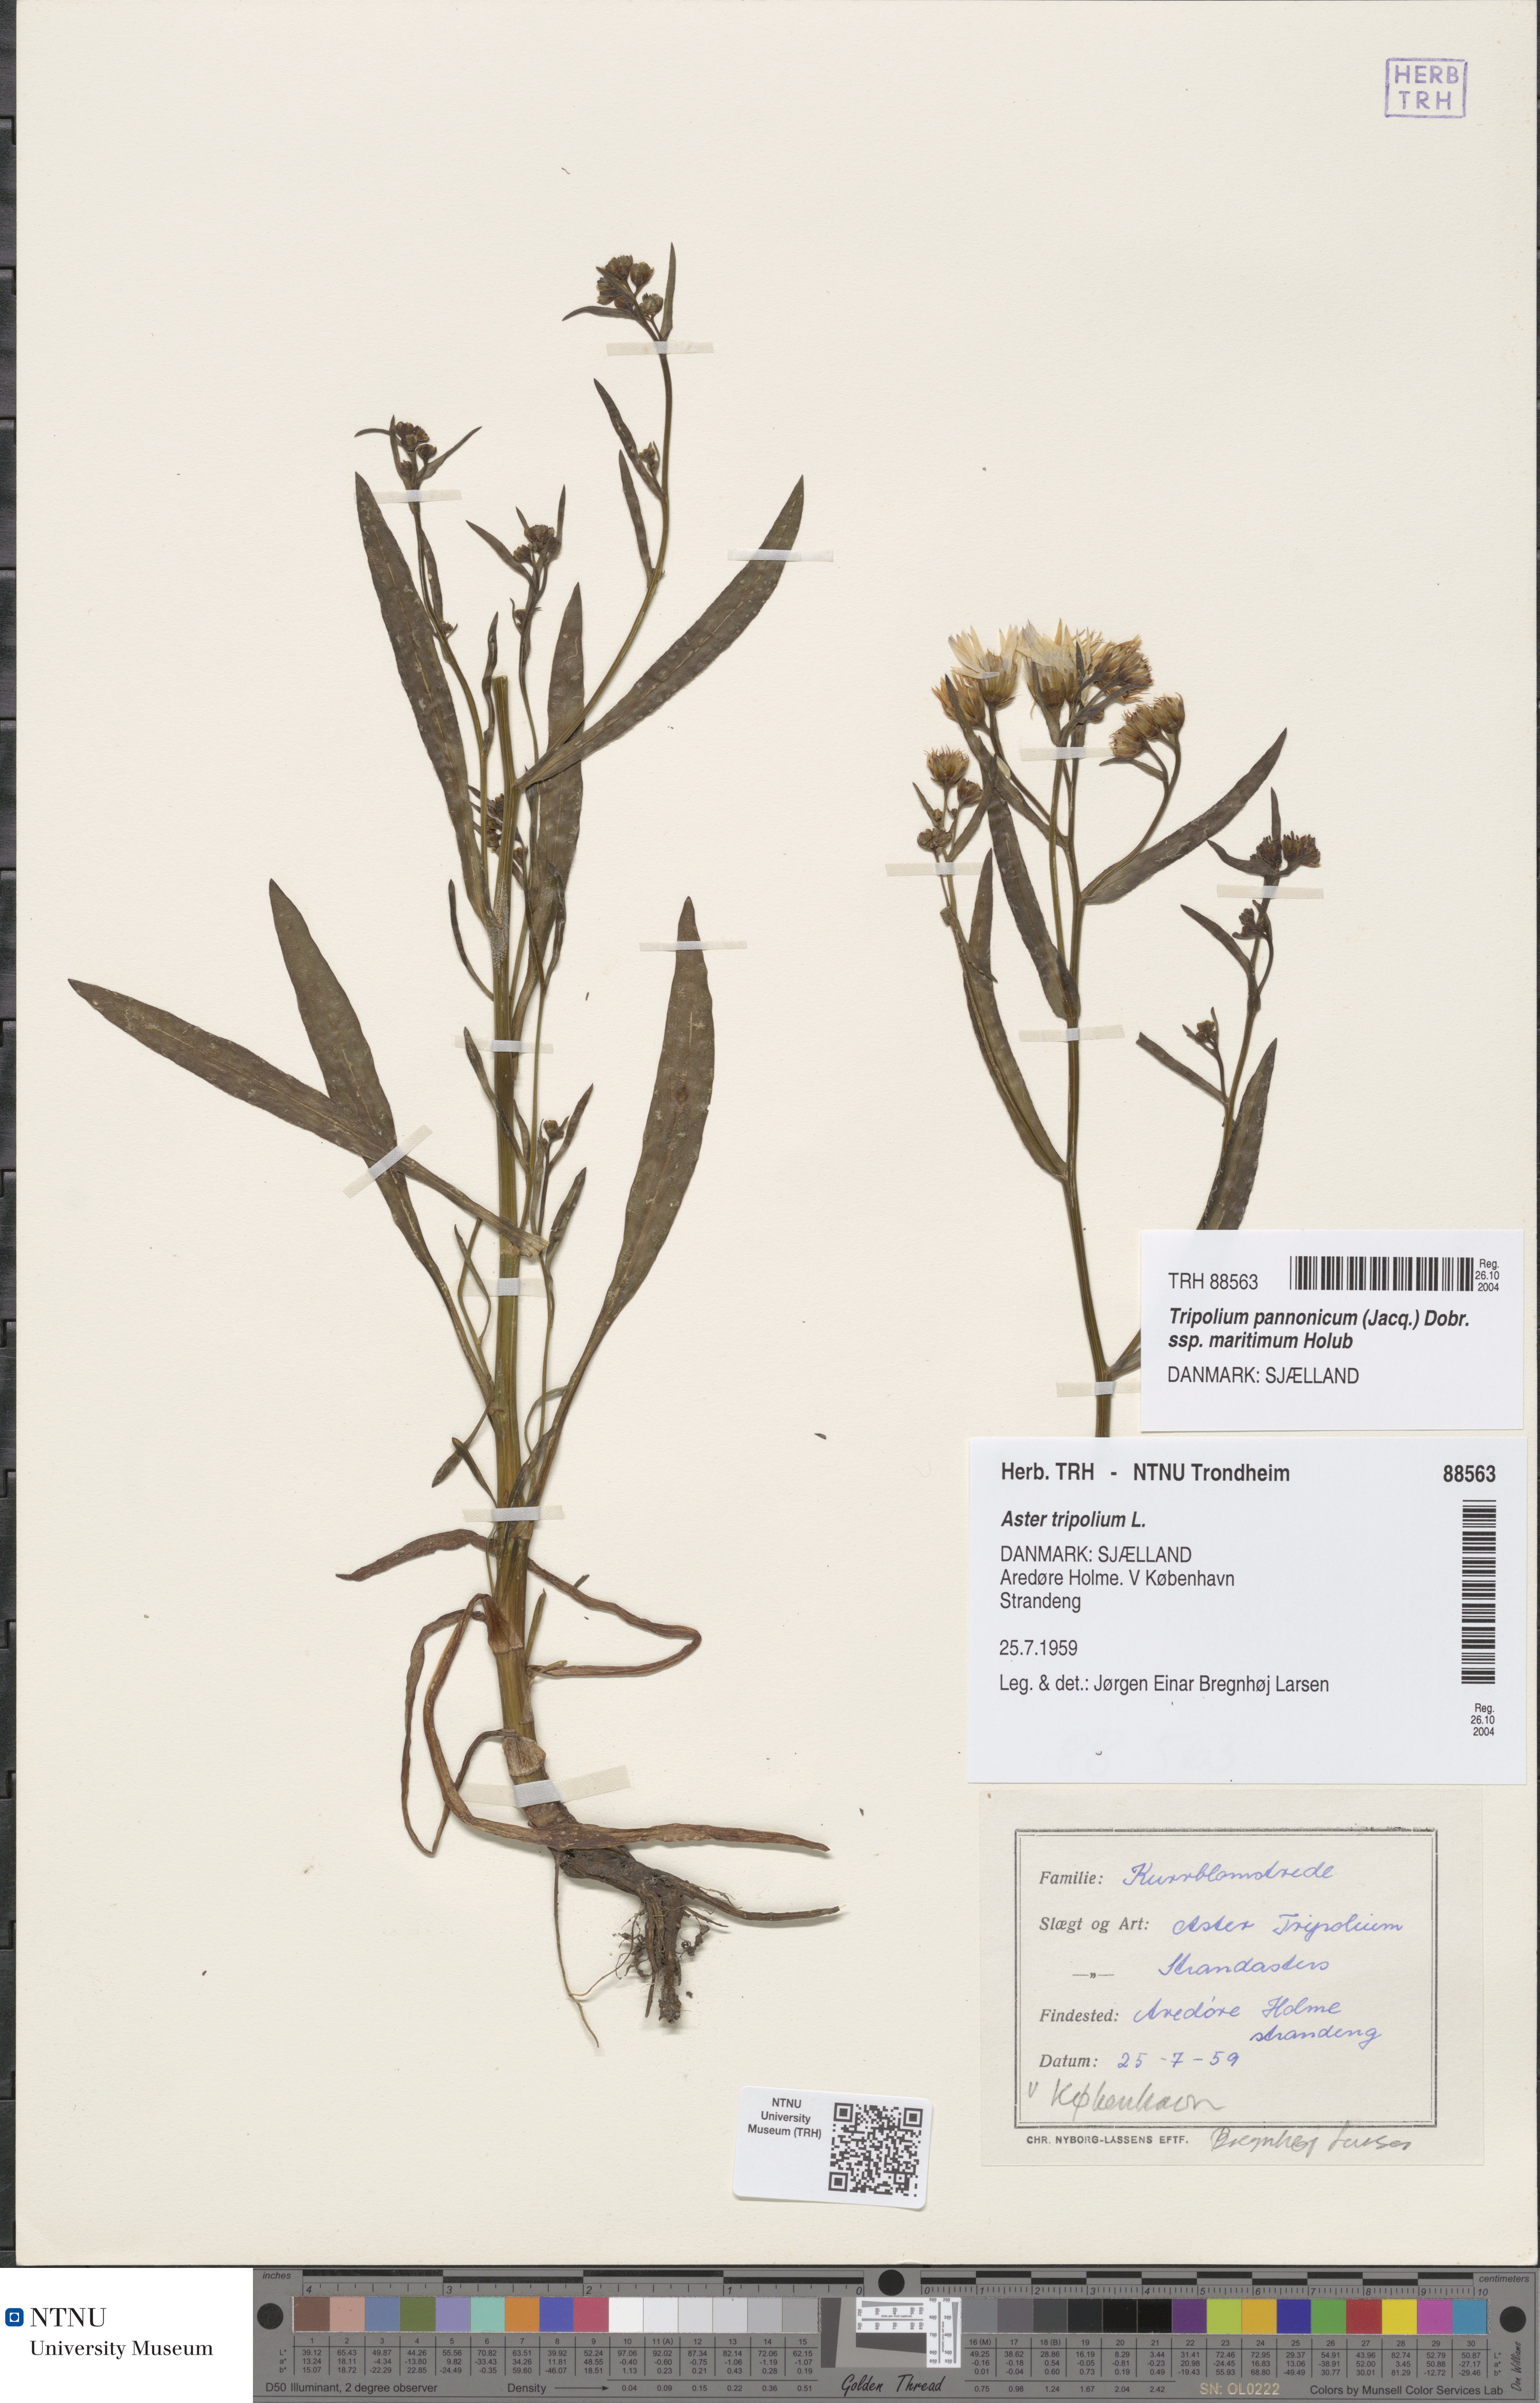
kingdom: Plantae
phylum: Tracheophyta
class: Magnoliopsida
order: Asterales
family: Asteraceae
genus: Tripolium
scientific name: Tripolium pannonicum
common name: Sea aster
